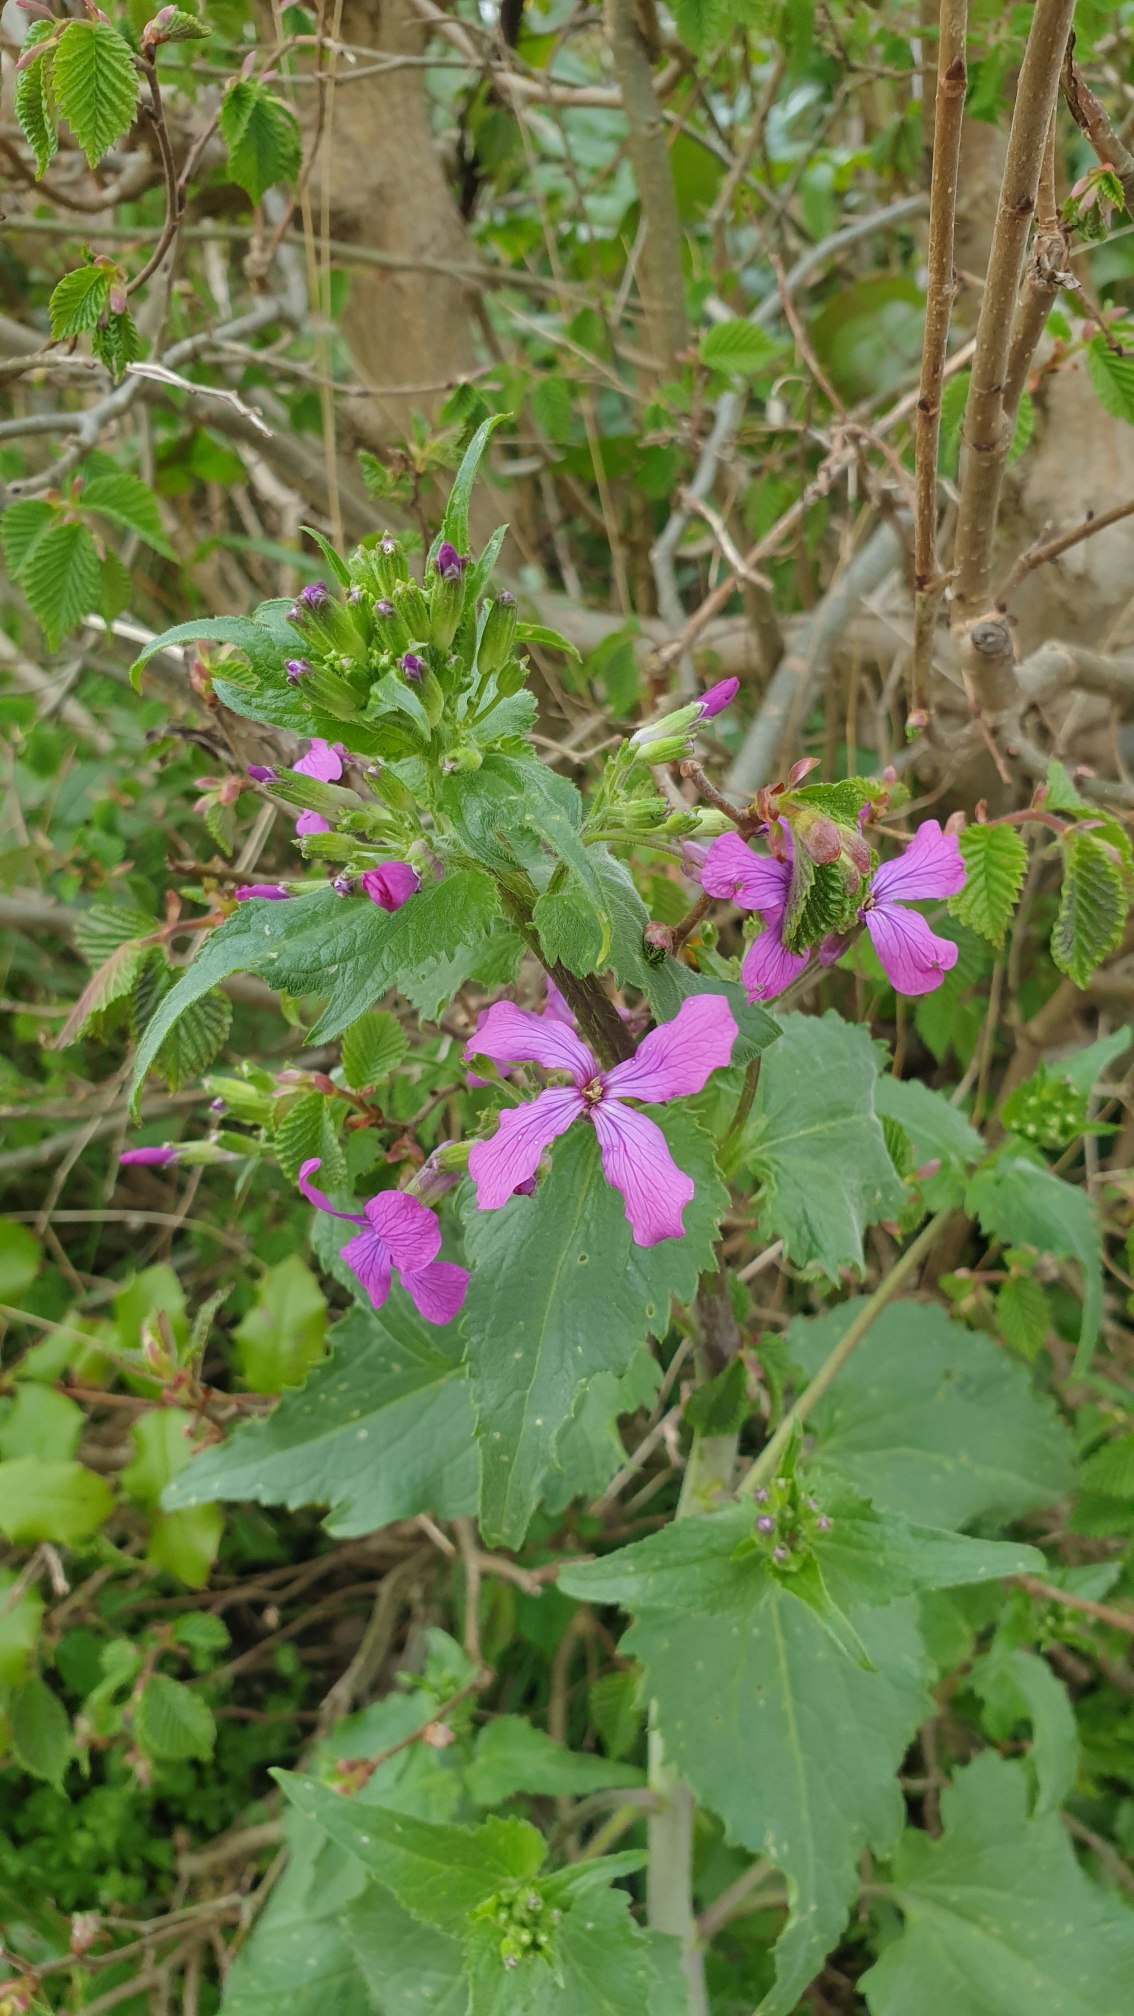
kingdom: Plantae
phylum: Tracheophyta
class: Magnoliopsida
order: Brassicales
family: Brassicaceae
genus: Lunaria
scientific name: Lunaria annua
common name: Judaspenge
